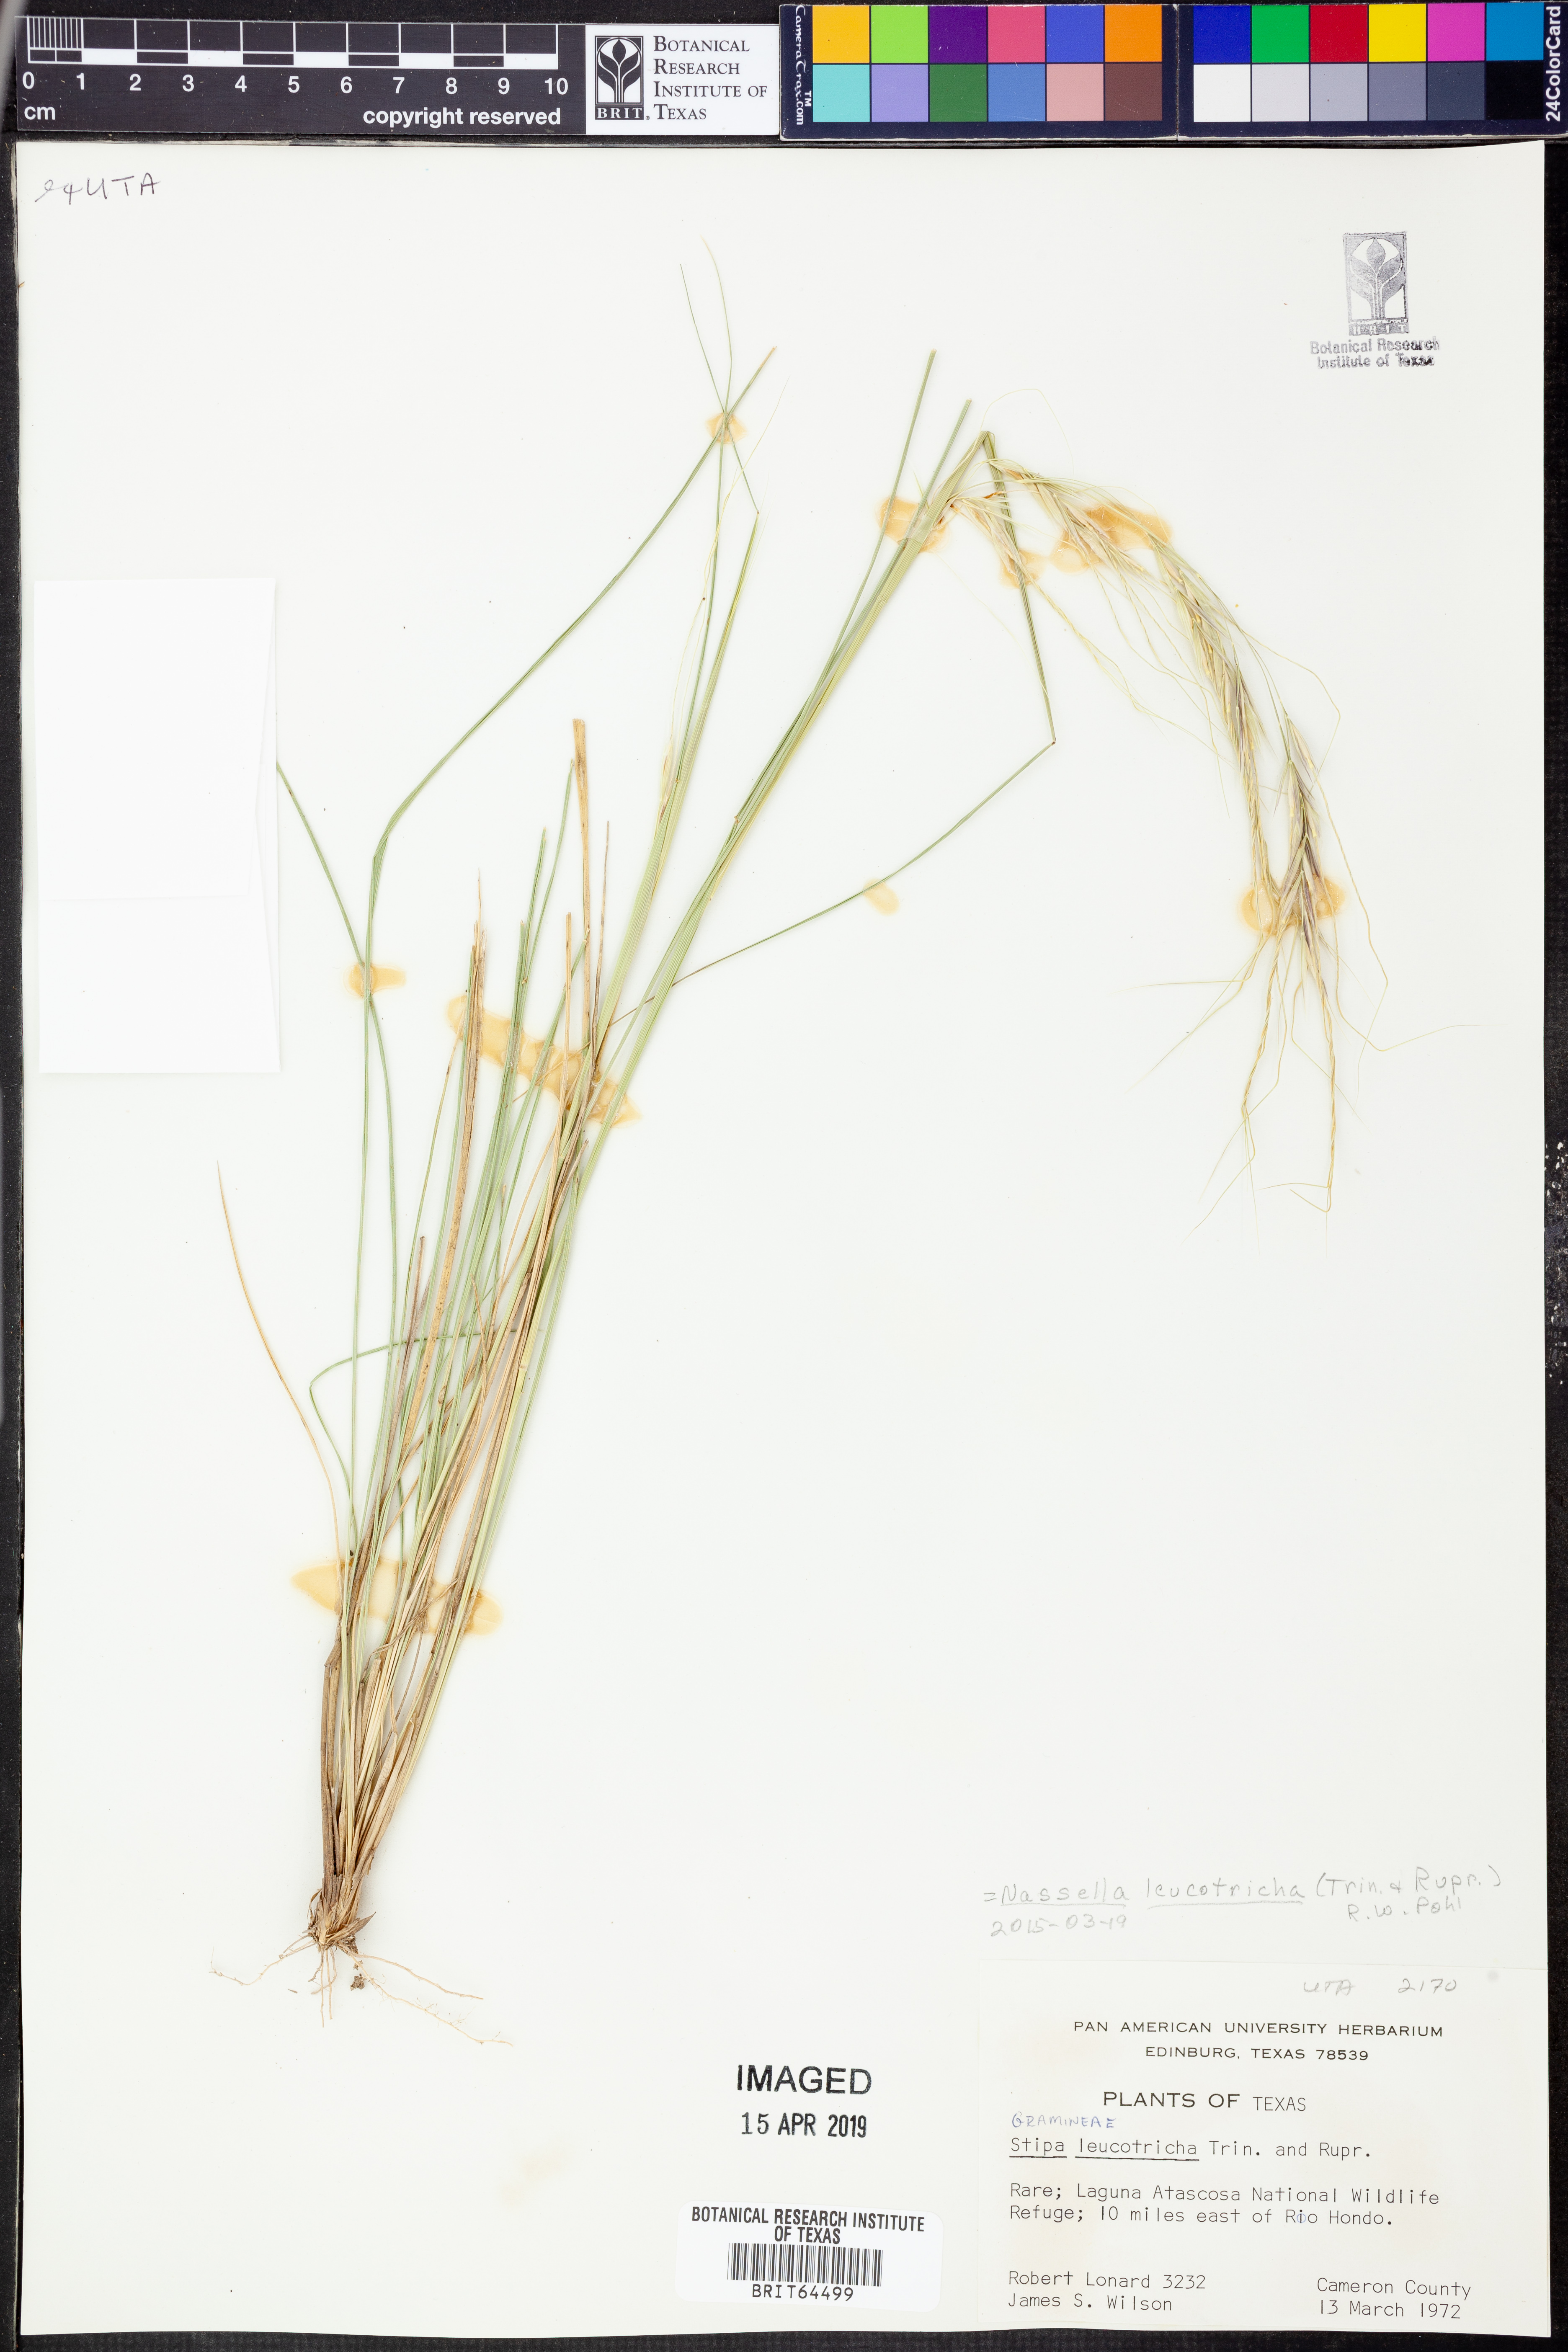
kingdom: Plantae
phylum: Tracheophyta
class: Liliopsida
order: Poales
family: Poaceae
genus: Nassella
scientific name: Nassella leucotricha
